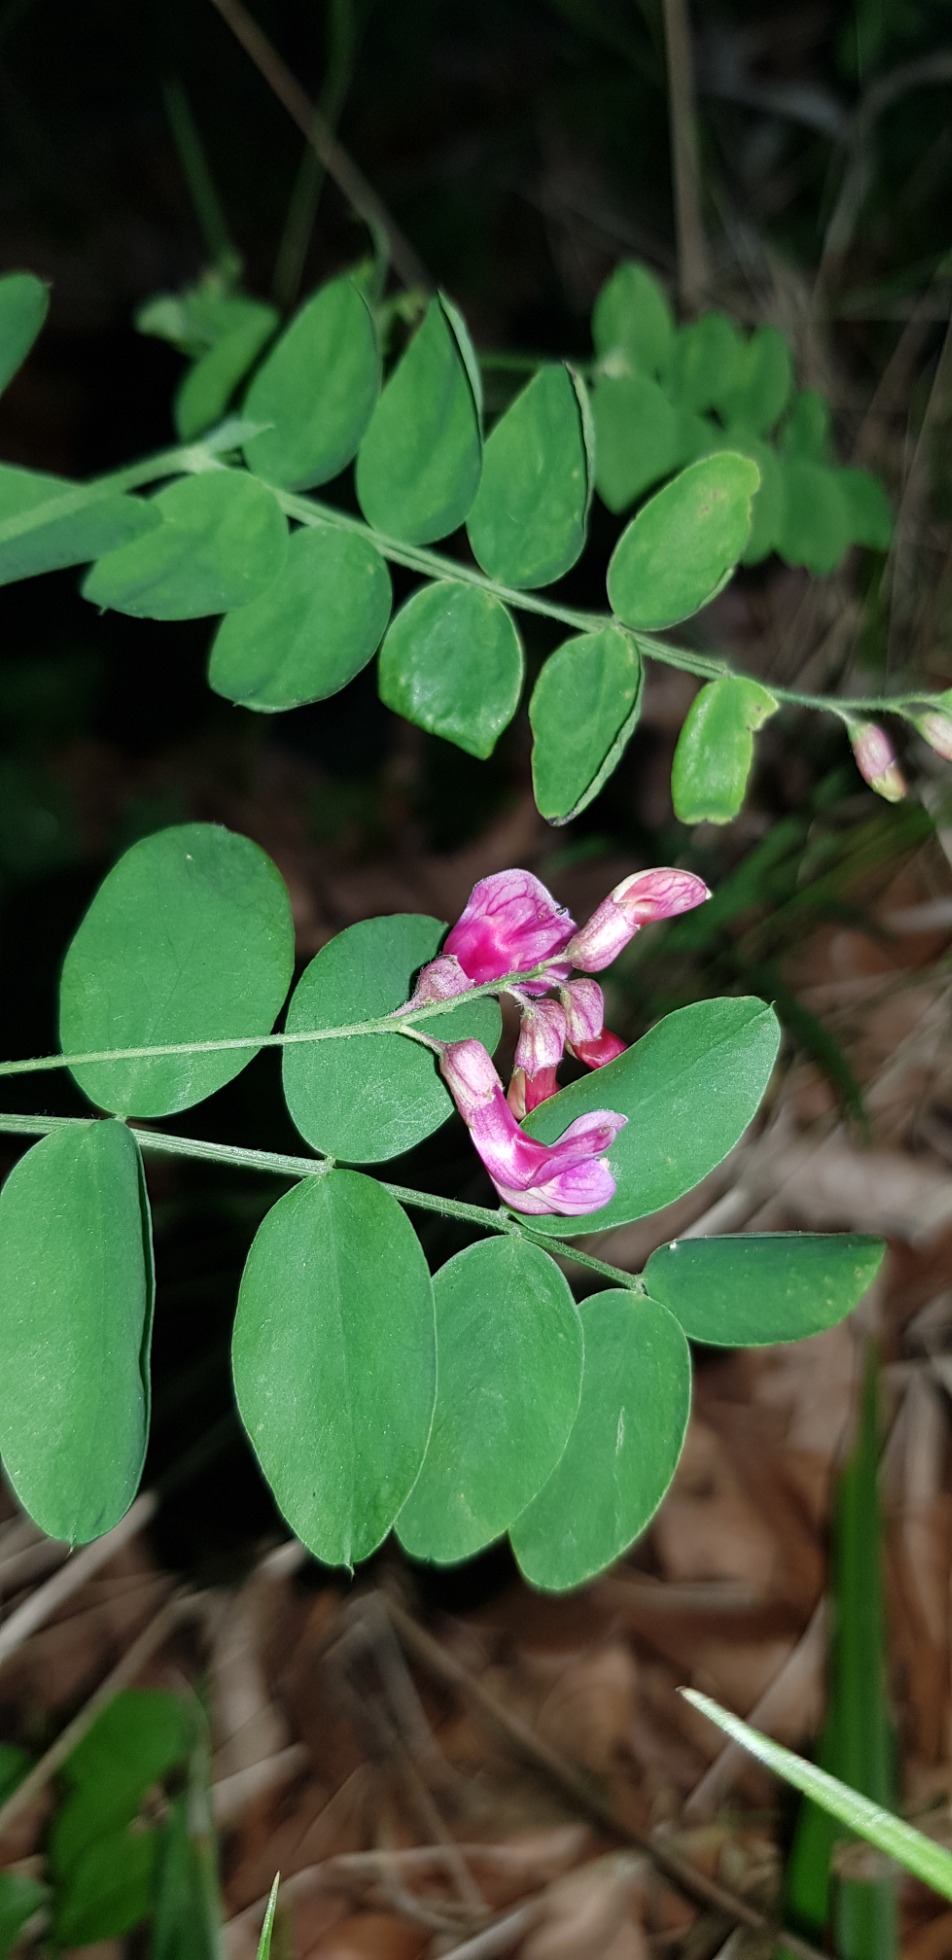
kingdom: Plantae
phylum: Tracheophyta
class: Magnoliopsida
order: Fabales
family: Fabaceae
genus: Lathyrus
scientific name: Lathyrus niger
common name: Sort fladbælg
